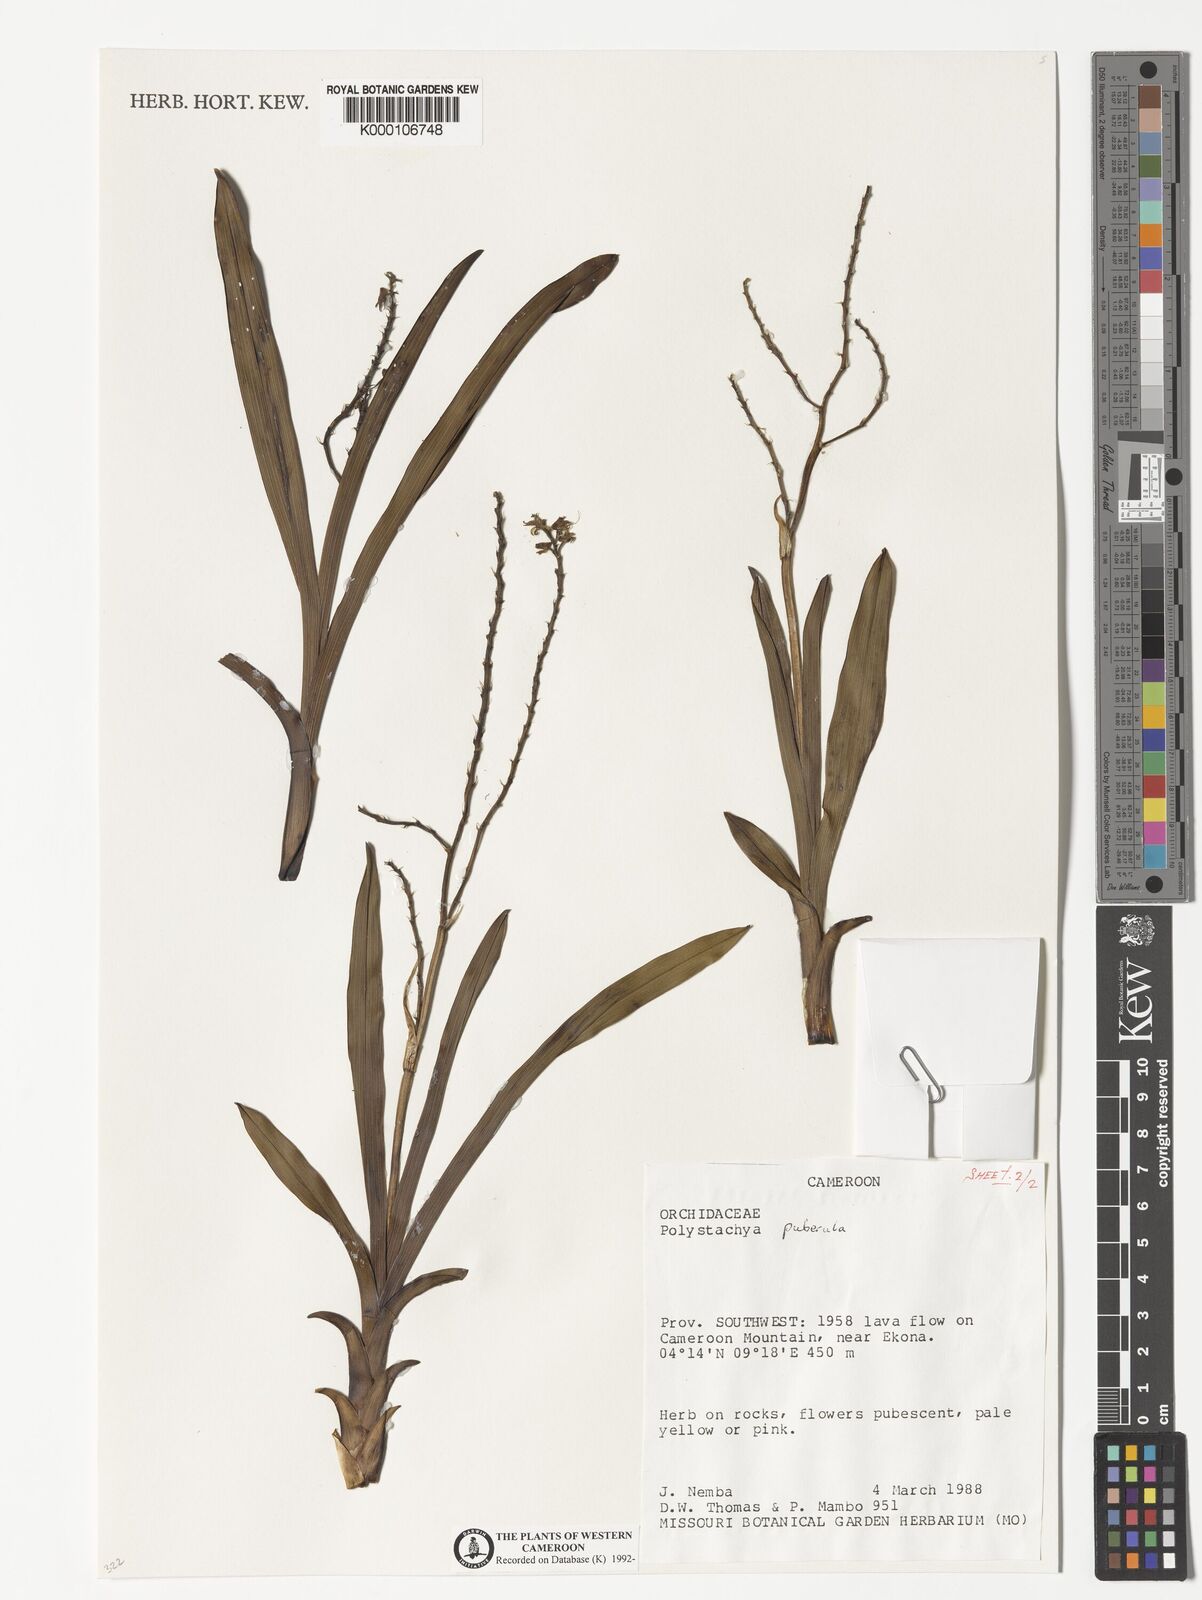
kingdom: Plantae
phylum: Tracheophyta
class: Liliopsida
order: Asparagales
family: Orchidaceae
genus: Polystachya
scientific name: Polystachya puberula
